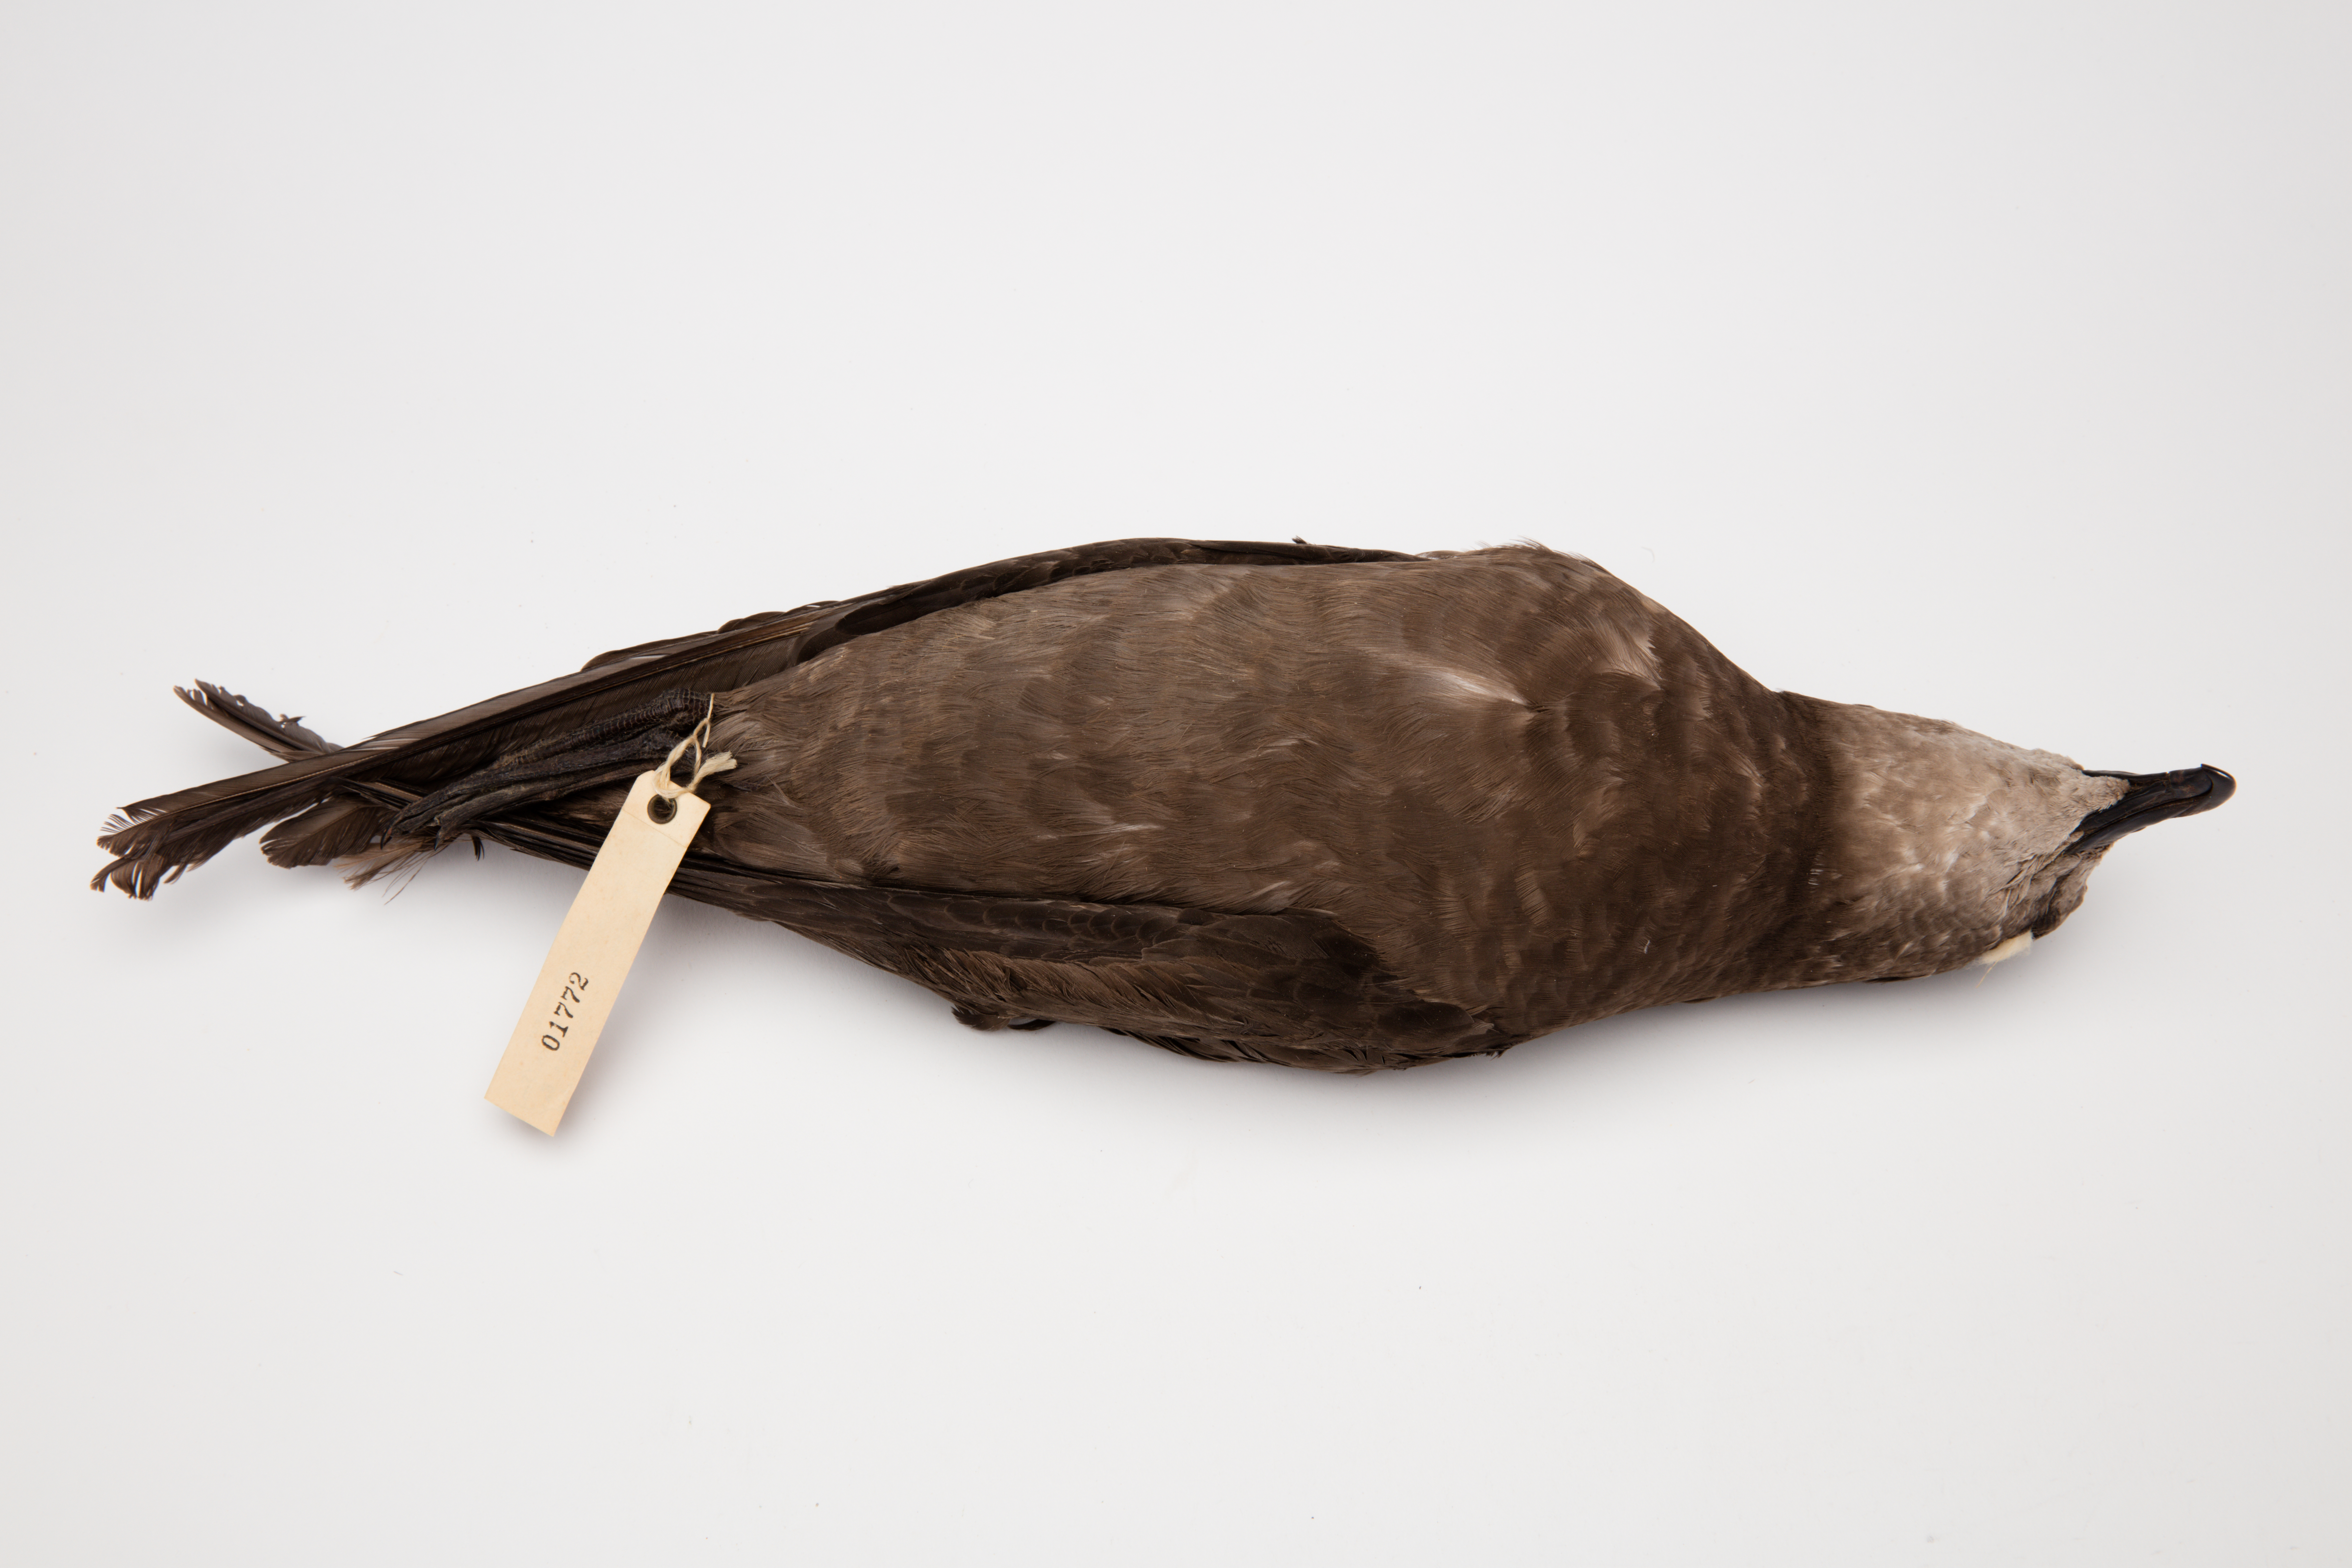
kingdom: Animalia
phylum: Chordata
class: Aves
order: Procellariiformes
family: Procellariidae
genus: Pterodroma
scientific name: Pterodroma macroptera
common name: Great-winged petrel
